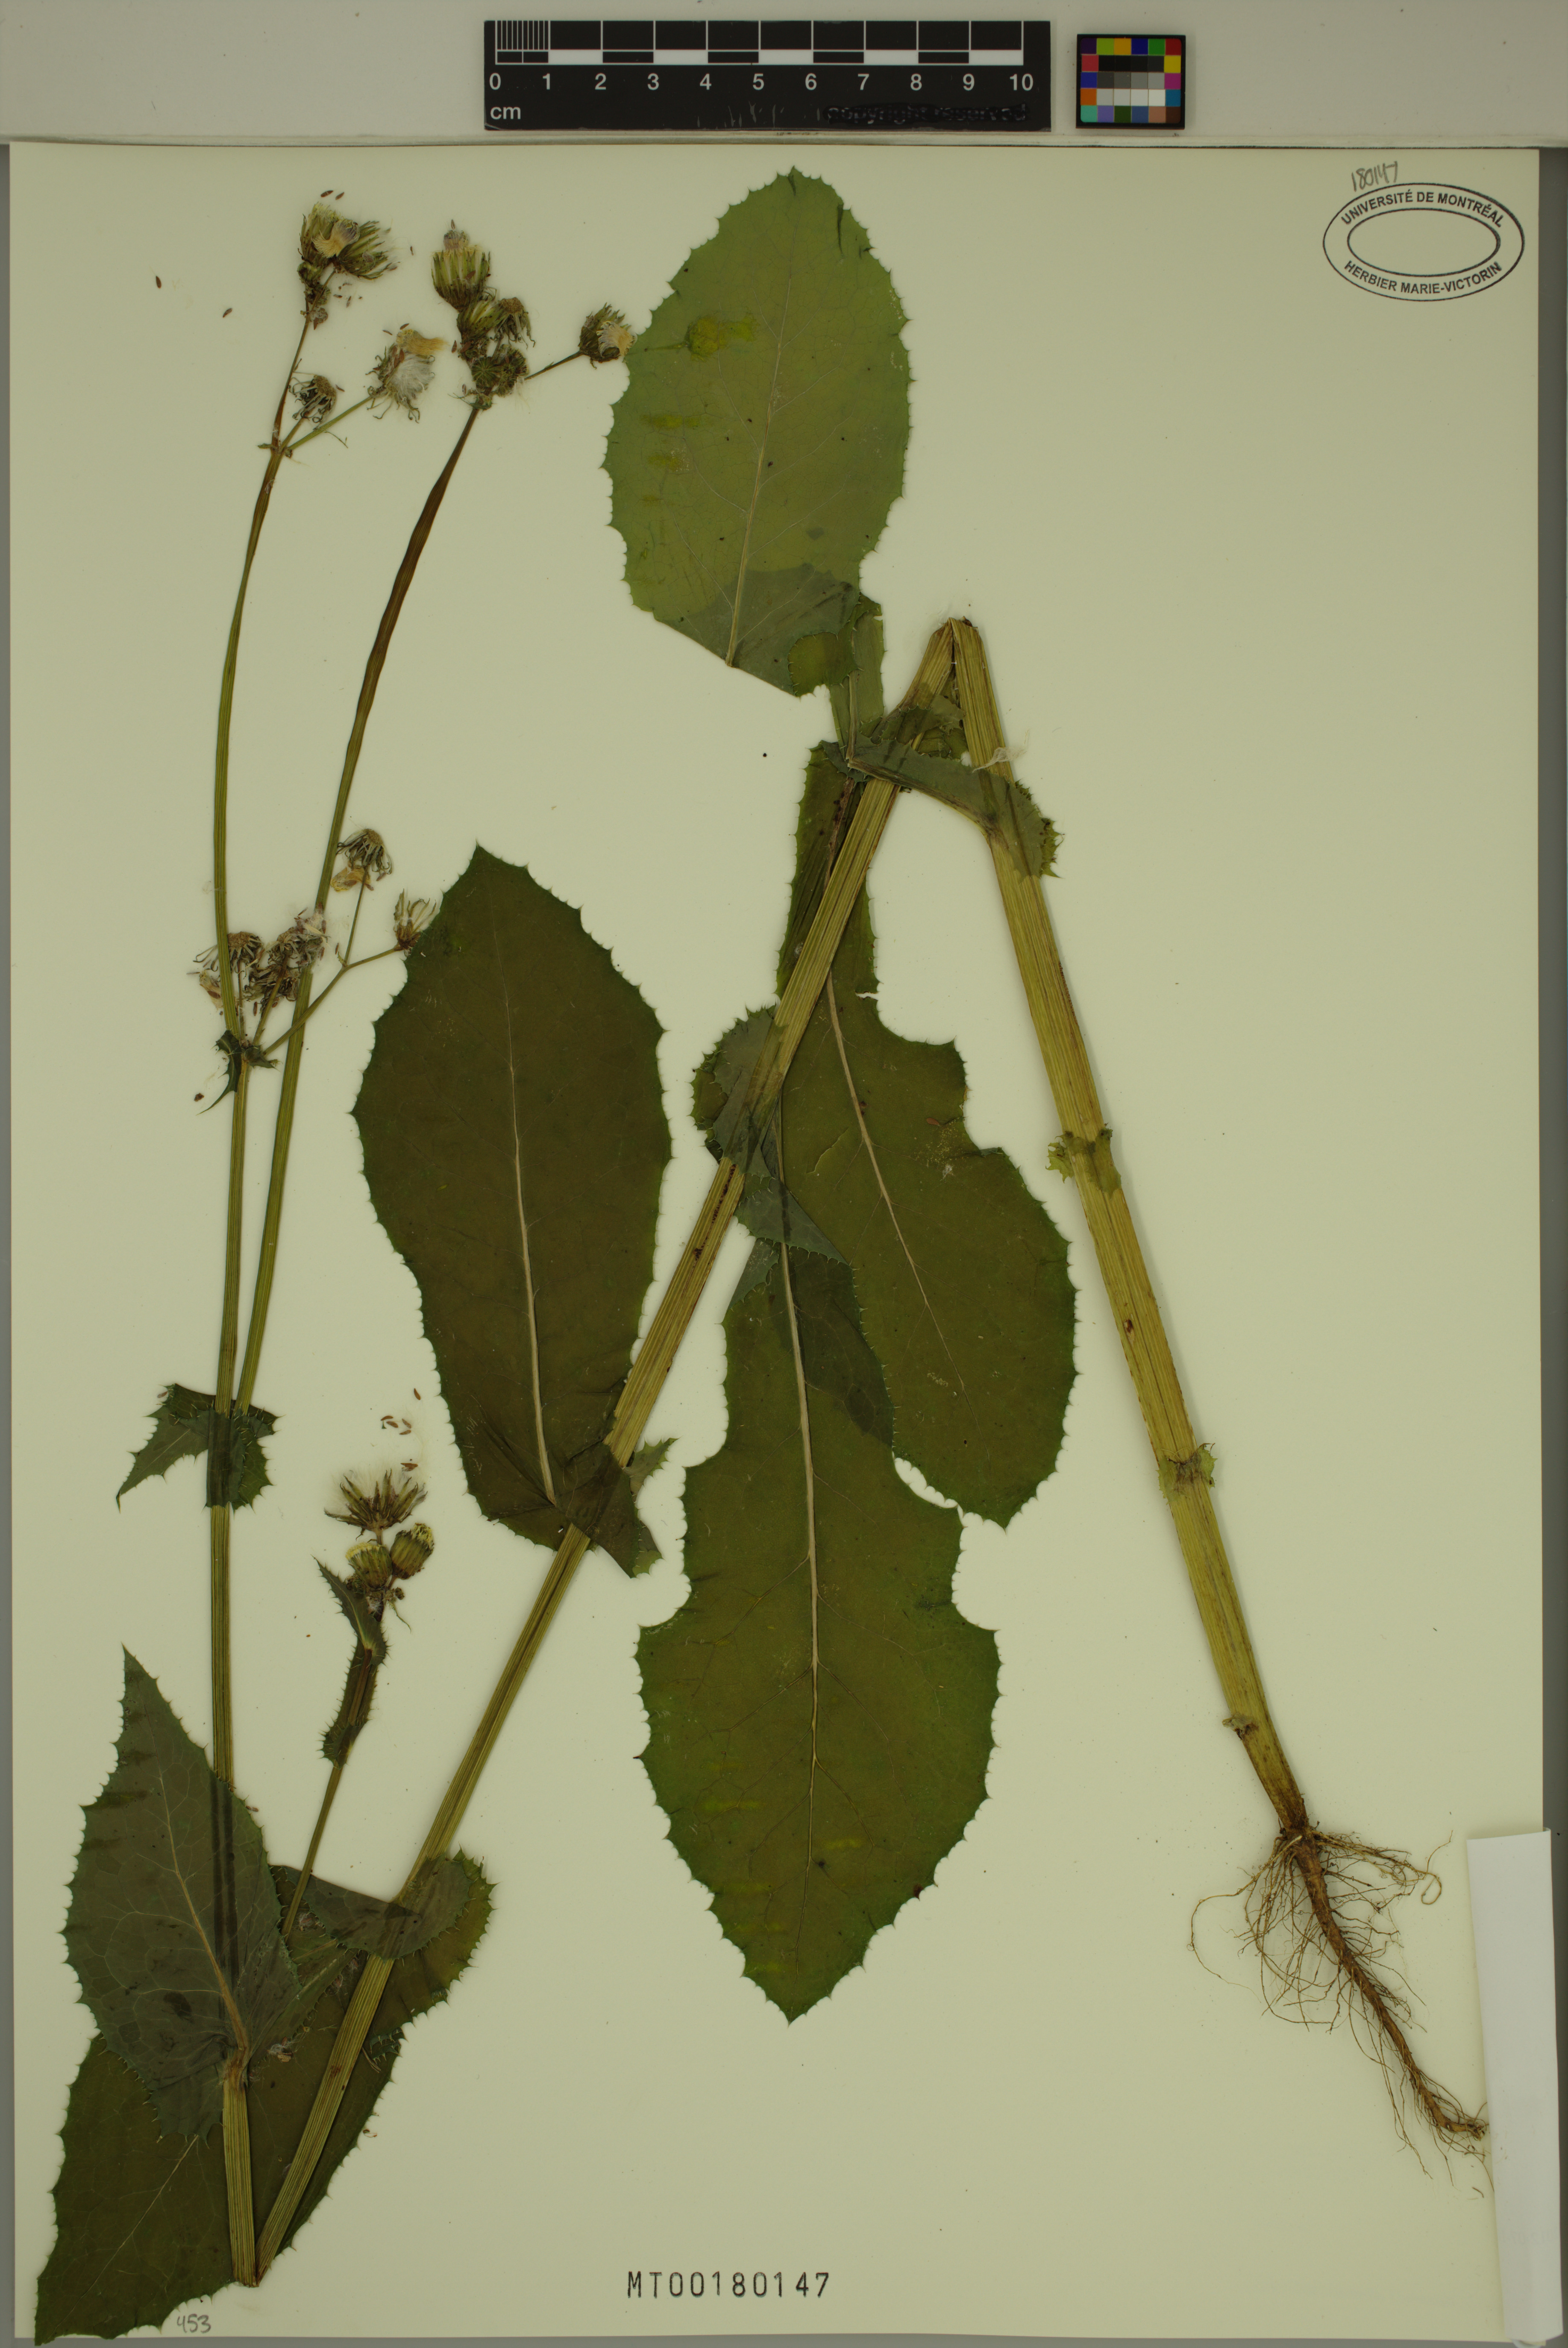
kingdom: Plantae
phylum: Tracheophyta
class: Magnoliopsida
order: Asterales
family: Asteraceae
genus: Sonchus
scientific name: Sonchus asper
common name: Prickly sow-thistle
